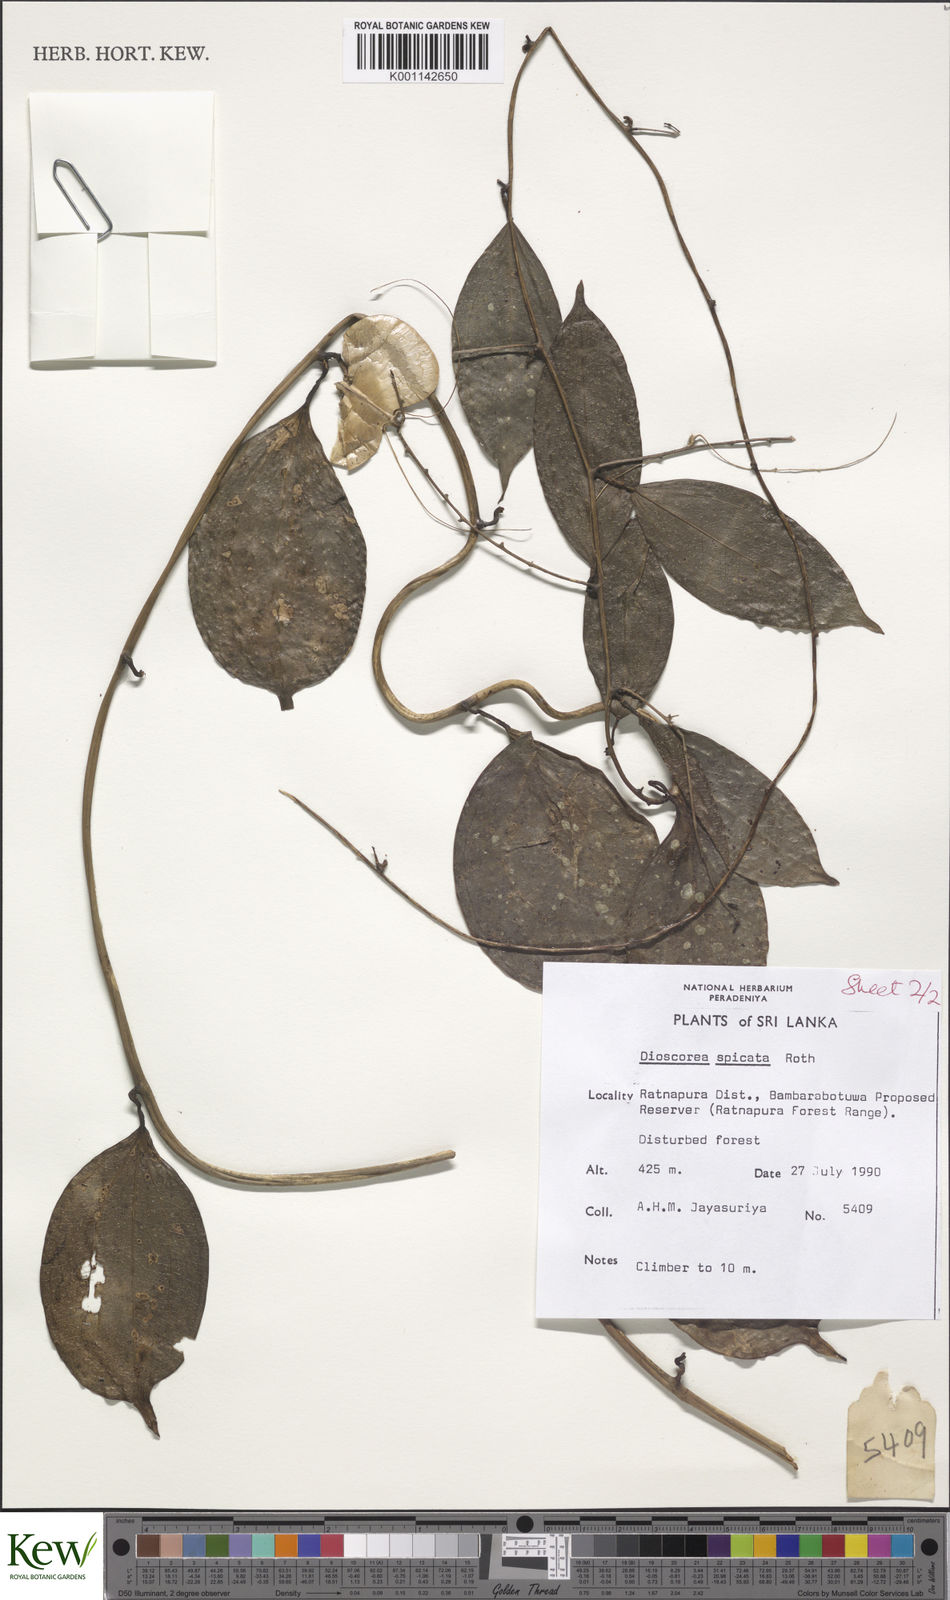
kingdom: Plantae
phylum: Tracheophyta
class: Liliopsida
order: Dioscoreales
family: Dioscoreaceae
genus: Dioscorea
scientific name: Dioscorea spicata
